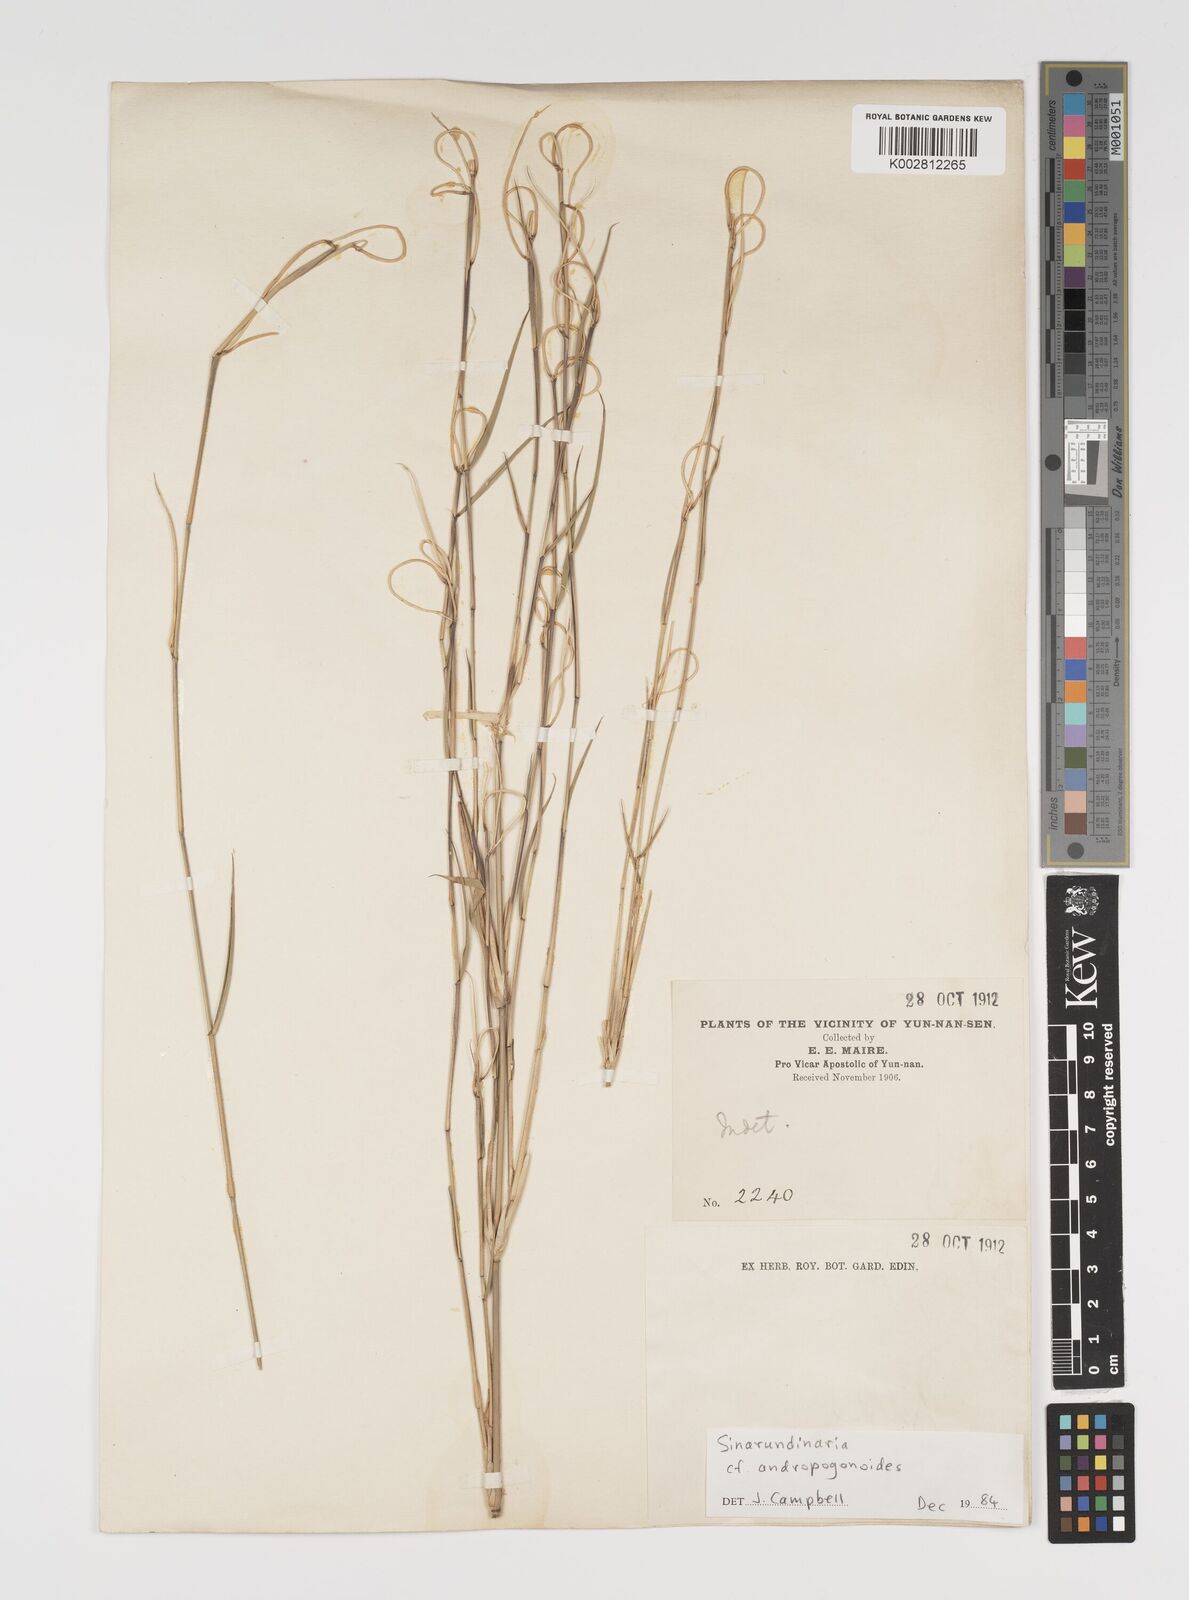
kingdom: Plantae
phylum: Tracheophyta
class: Liliopsida
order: Poales
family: Poaceae
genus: Yushania
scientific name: Yushania andropogonoides
